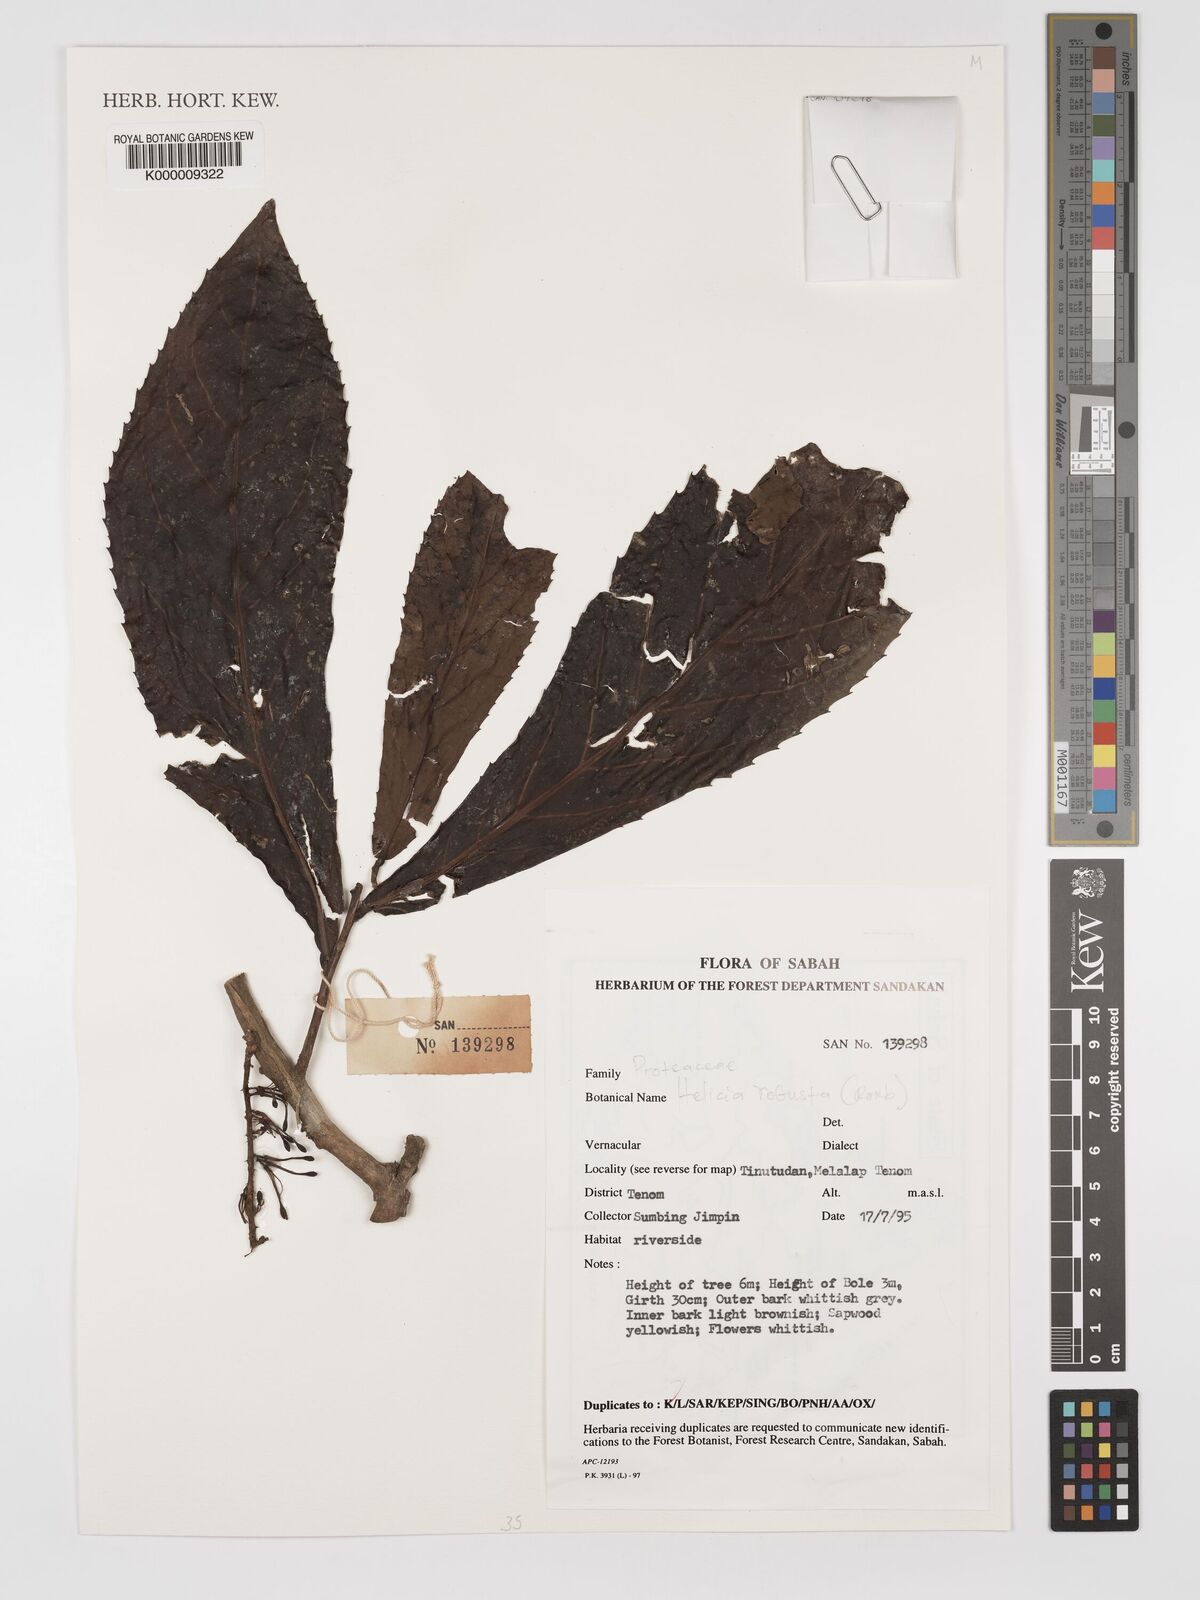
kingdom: Plantae
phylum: Tracheophyta
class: Magnoliopsida
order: Proteales
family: Proteaceae
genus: Helicia
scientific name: Helicia robusta
